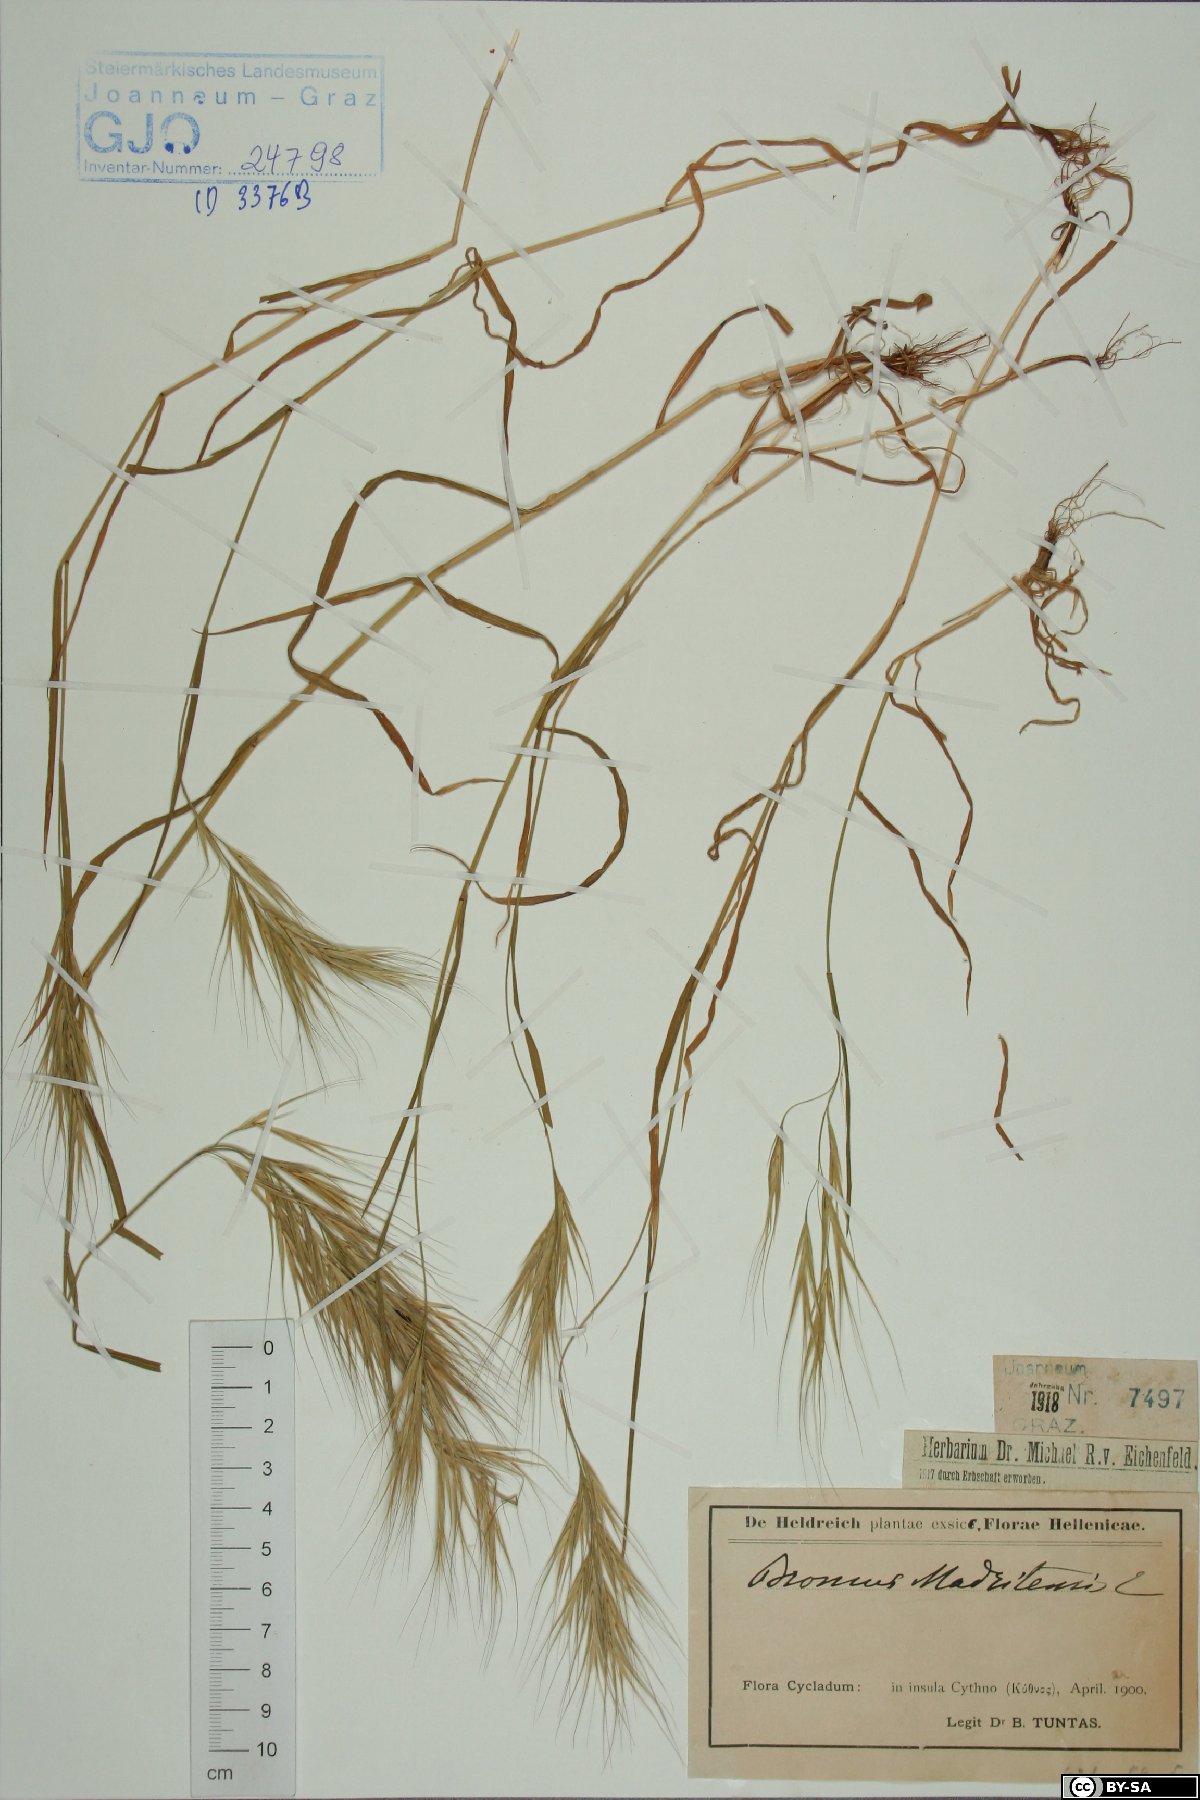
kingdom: Plantae
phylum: Tracheophyta
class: Liliopsida
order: Poales
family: Poaceae
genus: Bromus
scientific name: Bromus madritensis
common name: Compact brome
